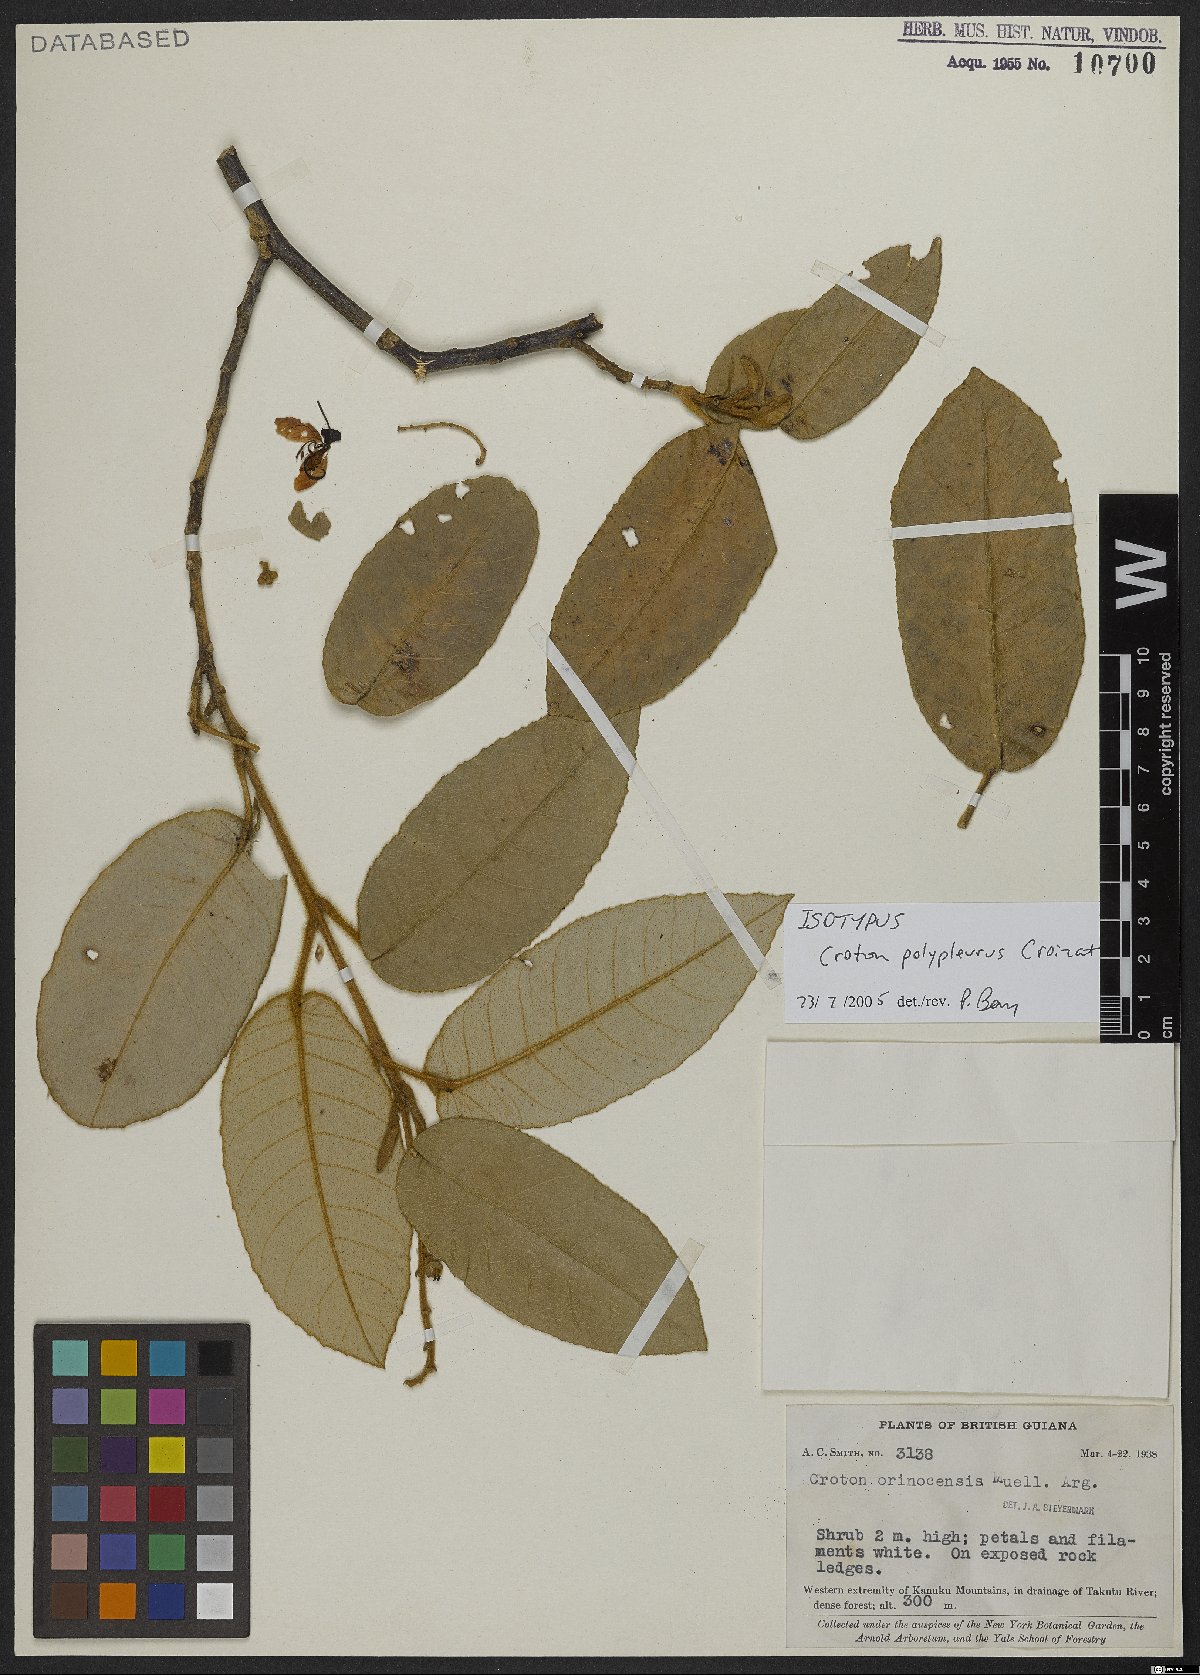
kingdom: Plantae
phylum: Tracheophyta
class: Magnoliopsida
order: Malpighiales
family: Euphorbiaceae
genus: Croton
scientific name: Croton polypleurus
